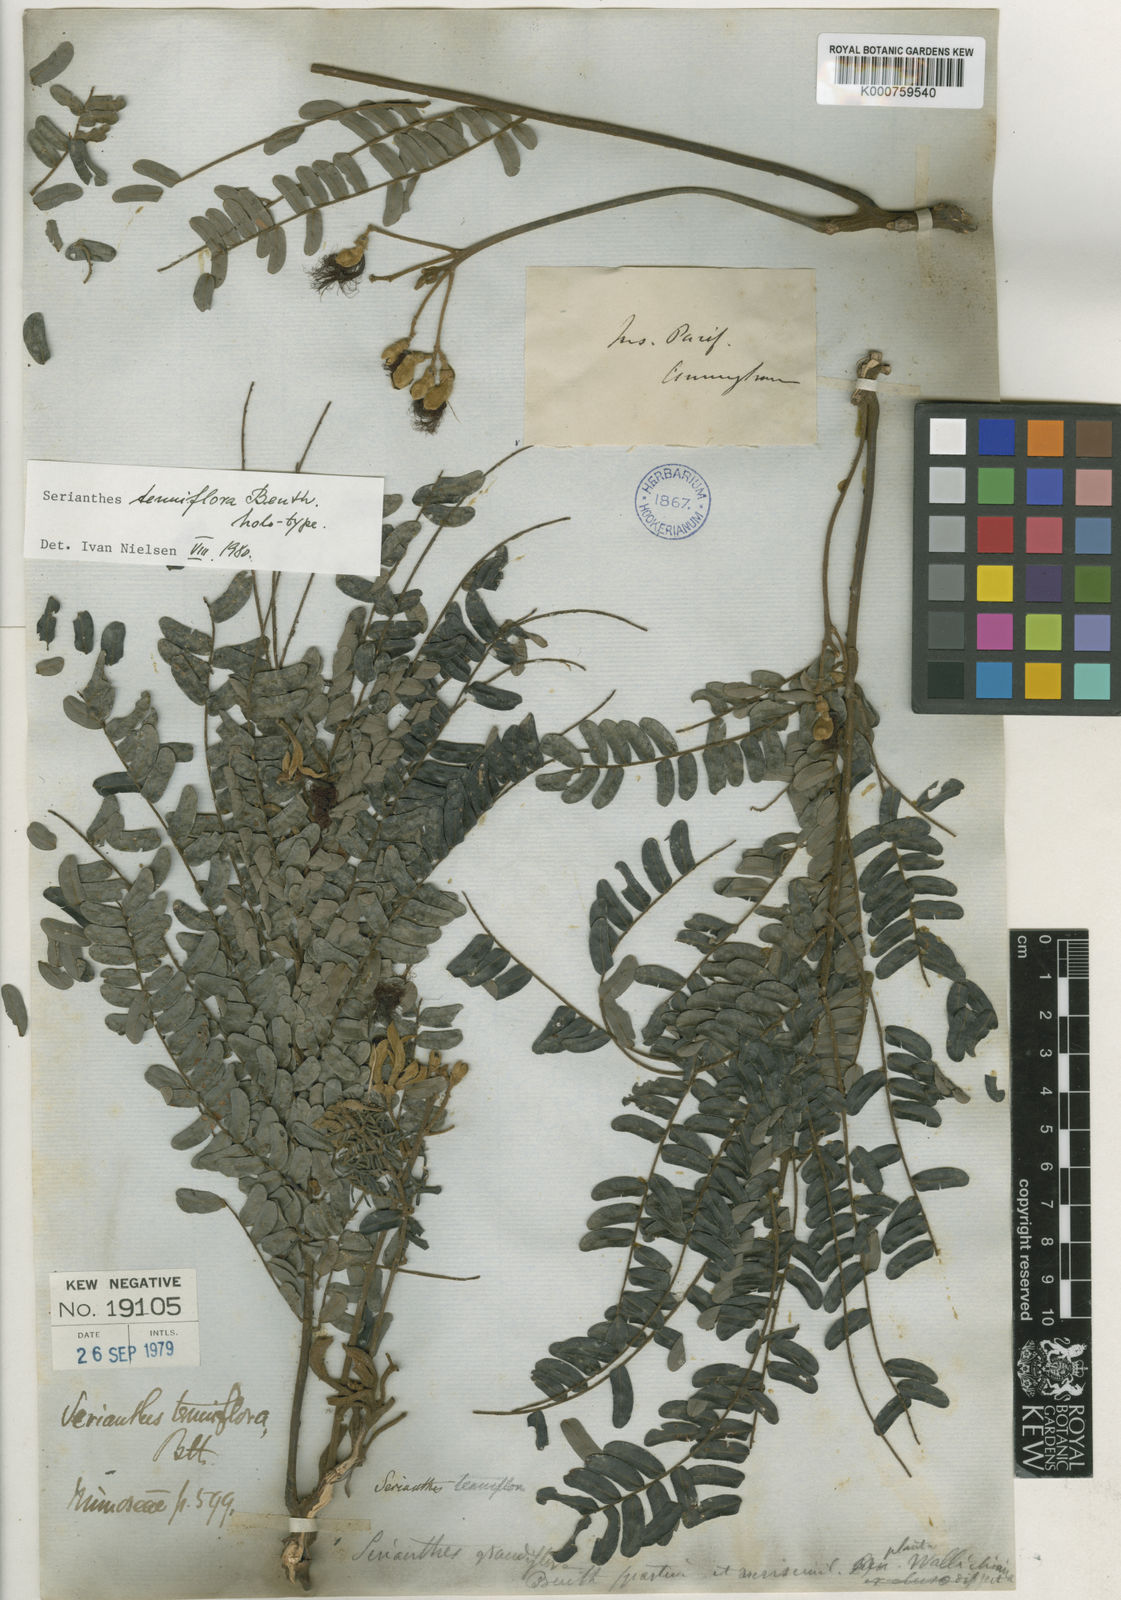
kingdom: Plantae
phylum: Tracheophyta
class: Magnoliopsida
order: Fabales
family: Fabaceae
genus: Serianthes
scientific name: Serianthes grandiflora
